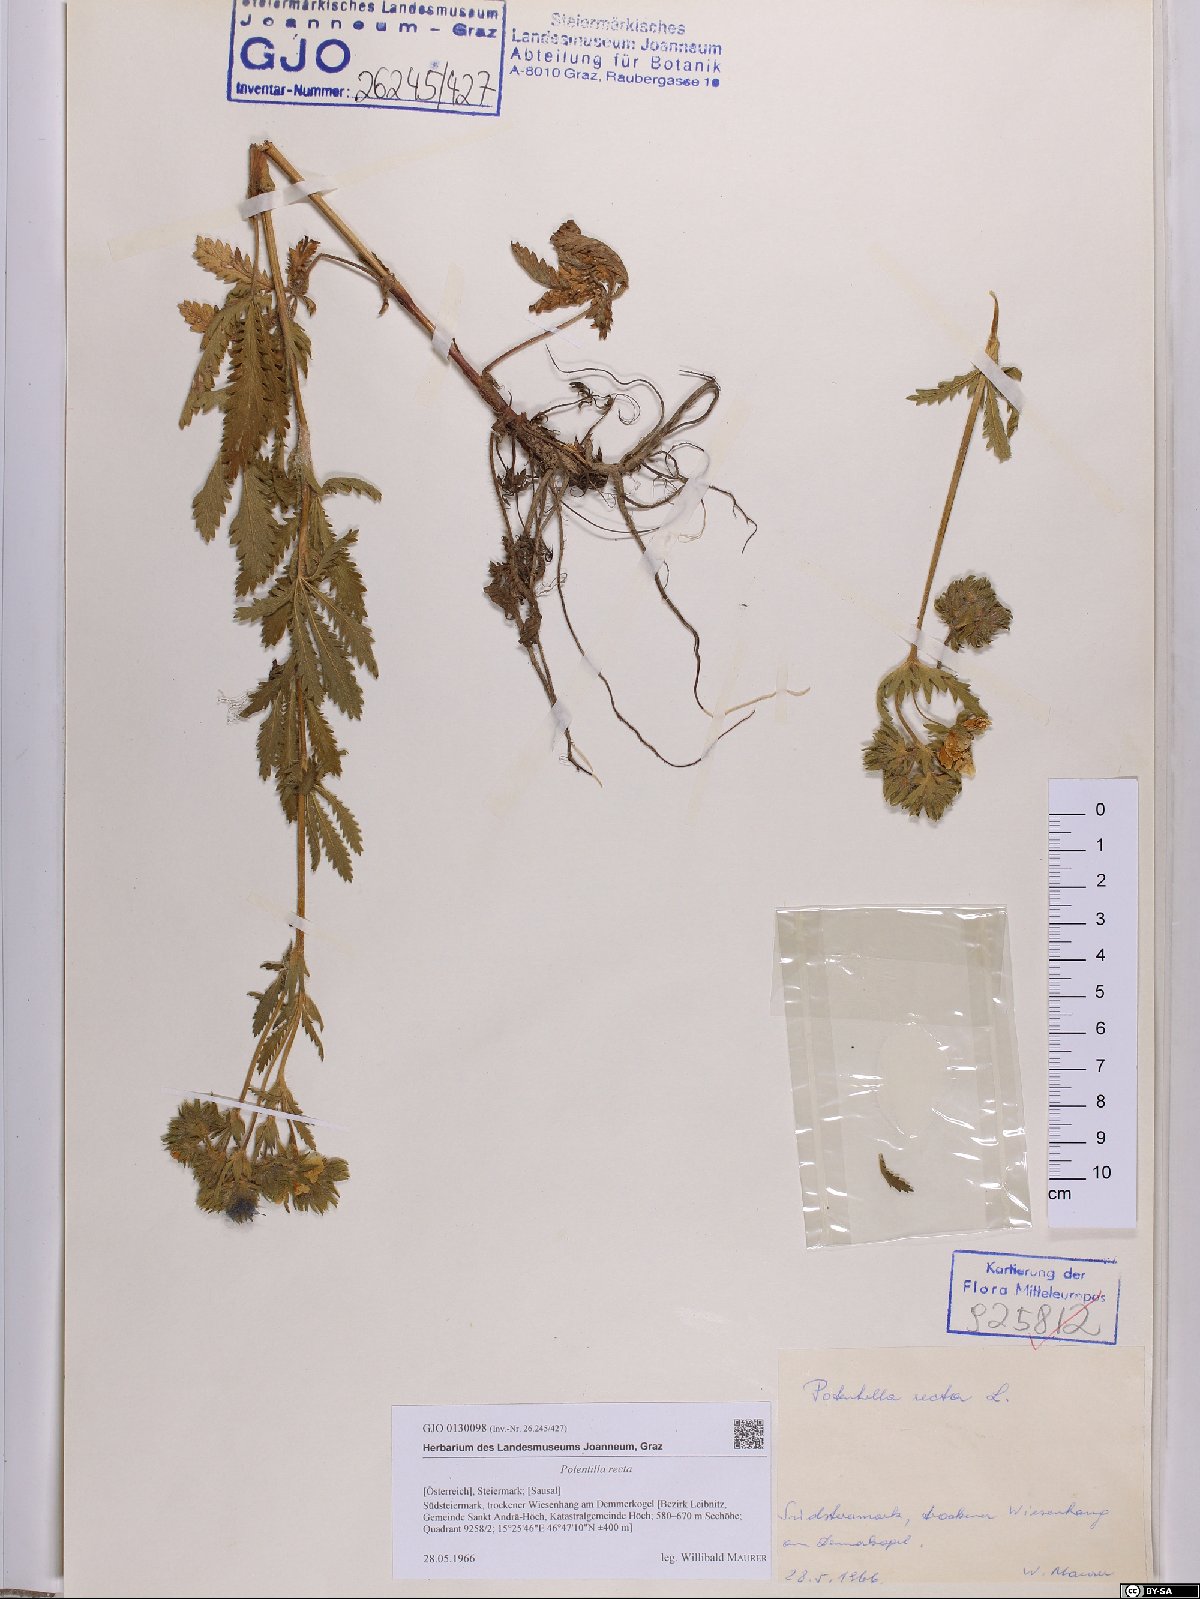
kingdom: Plantae
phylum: Tracheophyta
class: Magnoliopsida
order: Rosales
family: Rosaceae
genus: Potentilla
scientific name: Potentilla recta
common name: Sulphur cinquefoil
